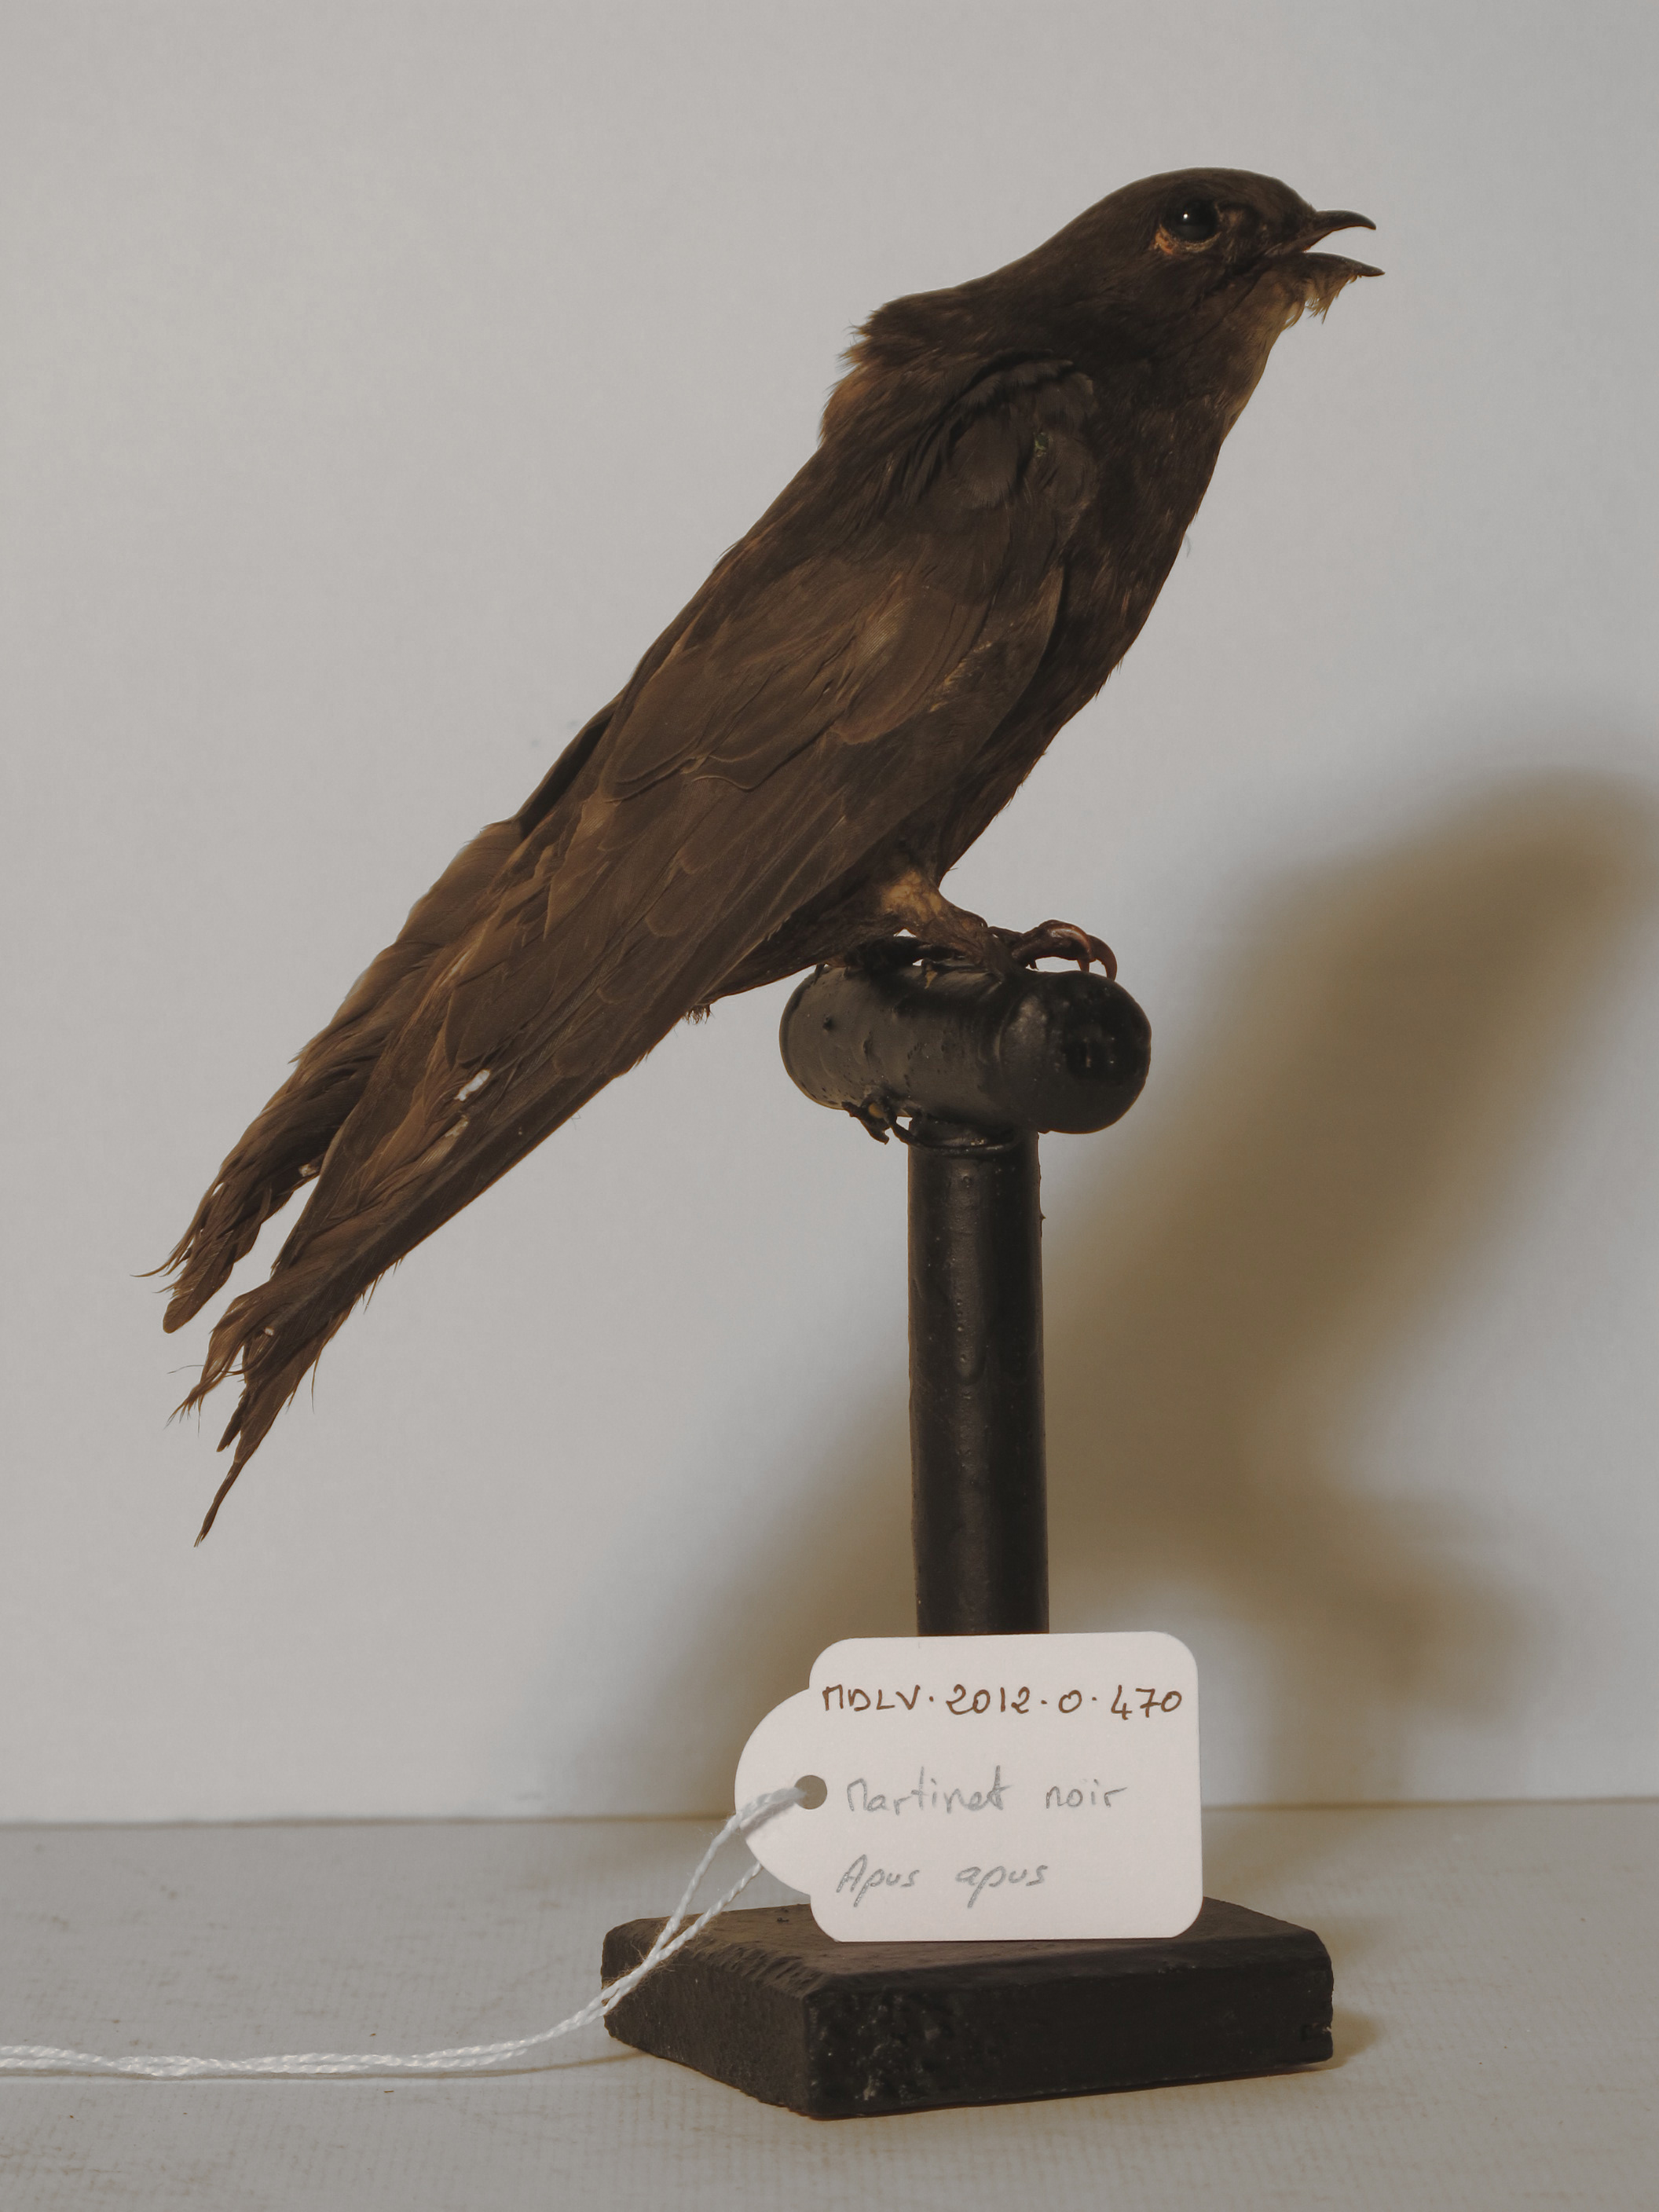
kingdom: Animalia
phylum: Chordata
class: Aves
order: Apodiformes
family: Apodidae
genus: Apus
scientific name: Apus apus
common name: Common Swift
